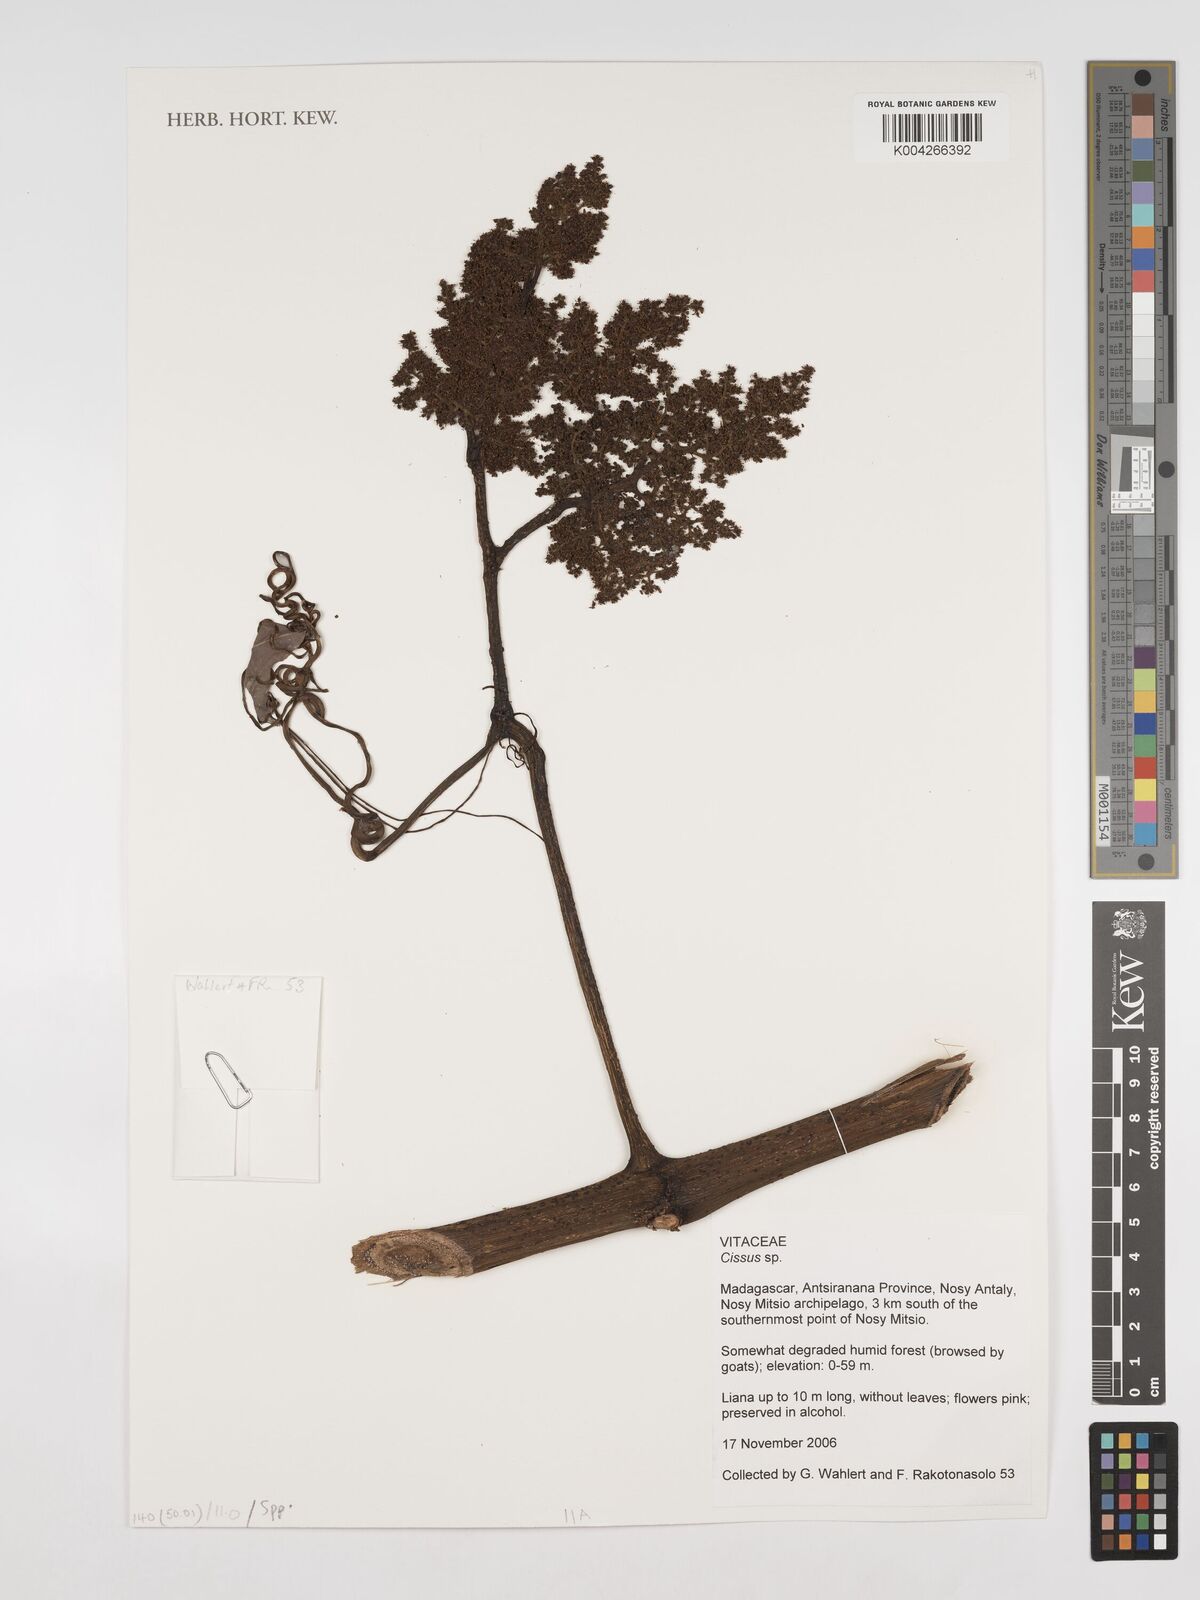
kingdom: Plantae
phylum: Tracheophyta
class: Magnoliopsida
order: Vitales
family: Vitaceae
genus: Cissus
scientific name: Cissus
